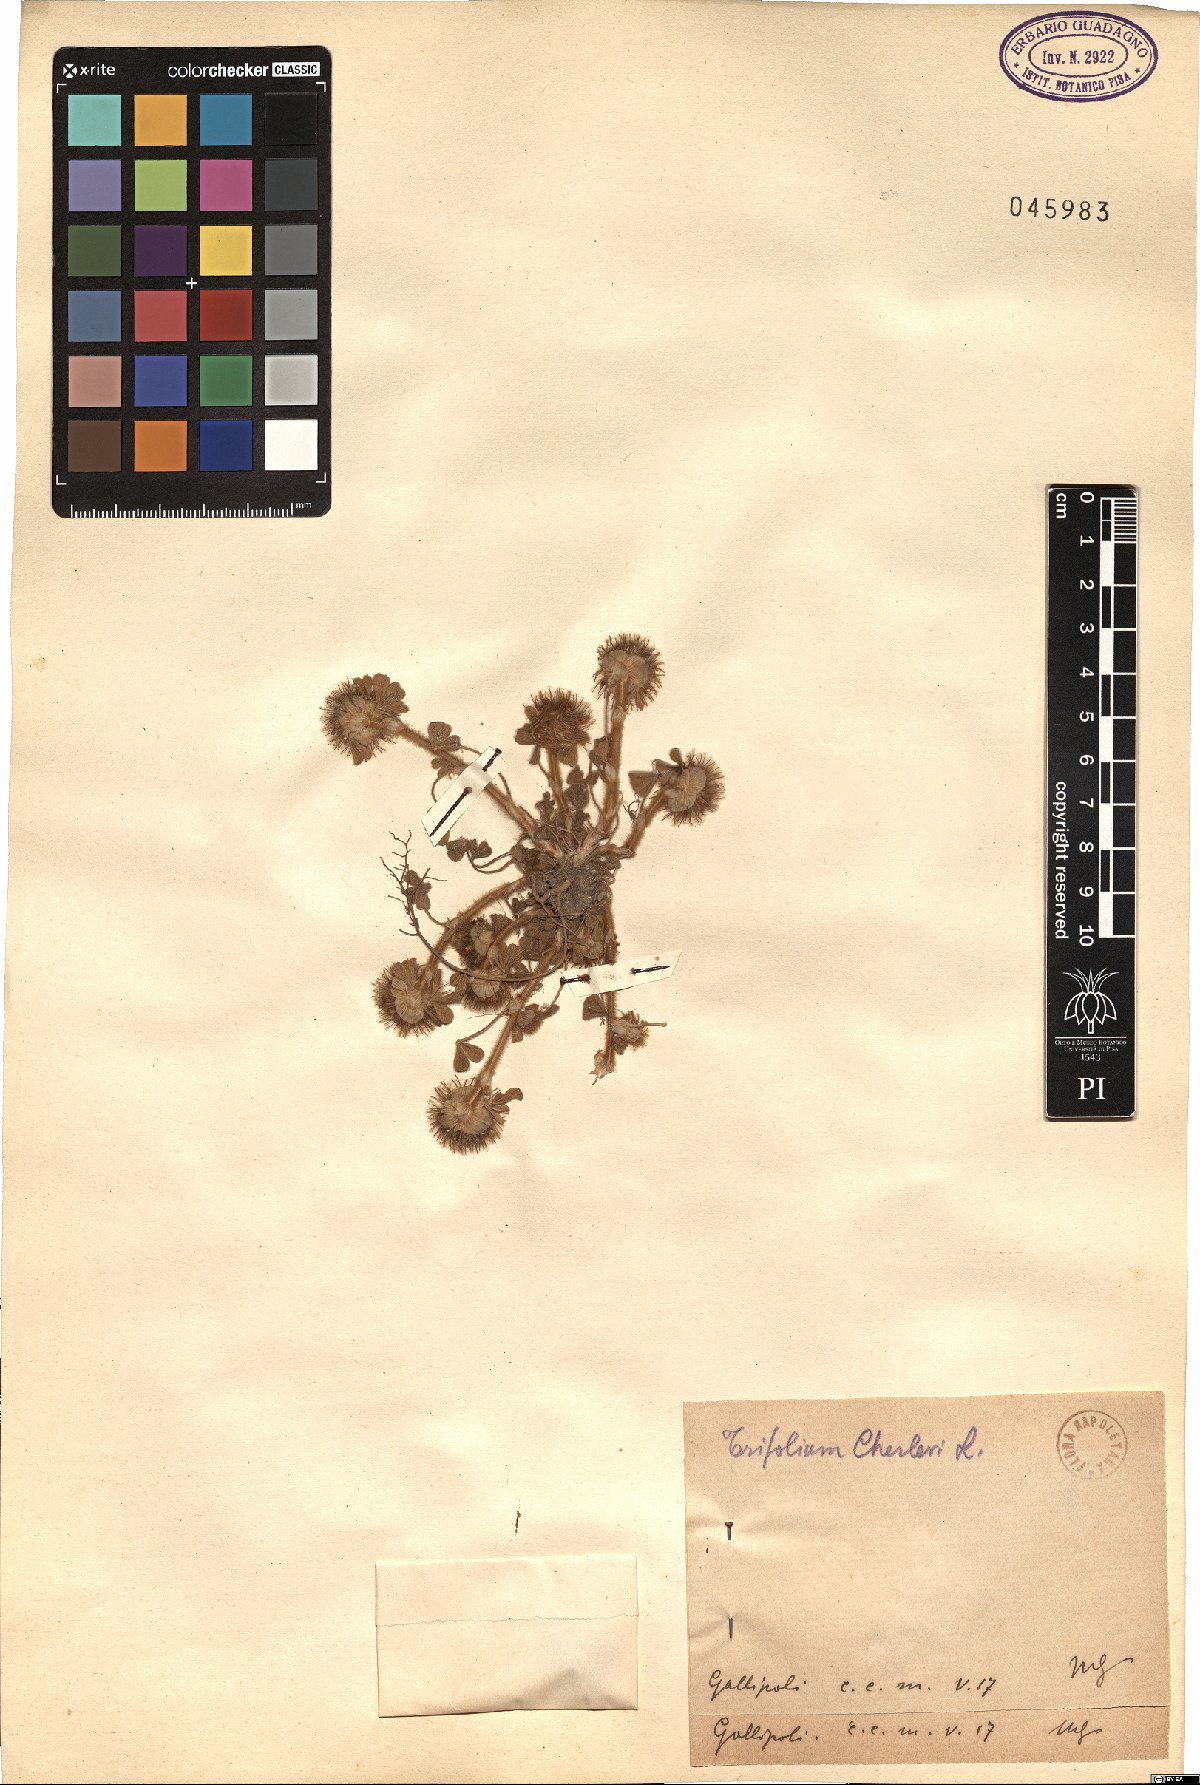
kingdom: Plantae
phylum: Tracheophyta
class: Magnoliopsida
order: Fabales
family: Fabaceae
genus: Trifolium
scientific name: Trifolium cherleri
